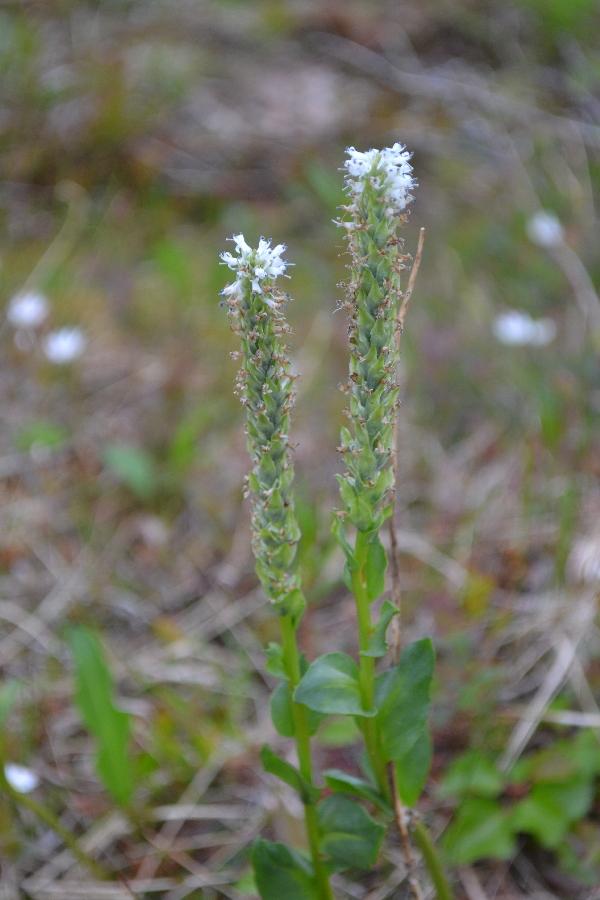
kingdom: Plantae
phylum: Tracheophyta
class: Magnoliopsida
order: Lamiales
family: Plantaginaceae
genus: Lagotis
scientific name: Lagotis glauca
